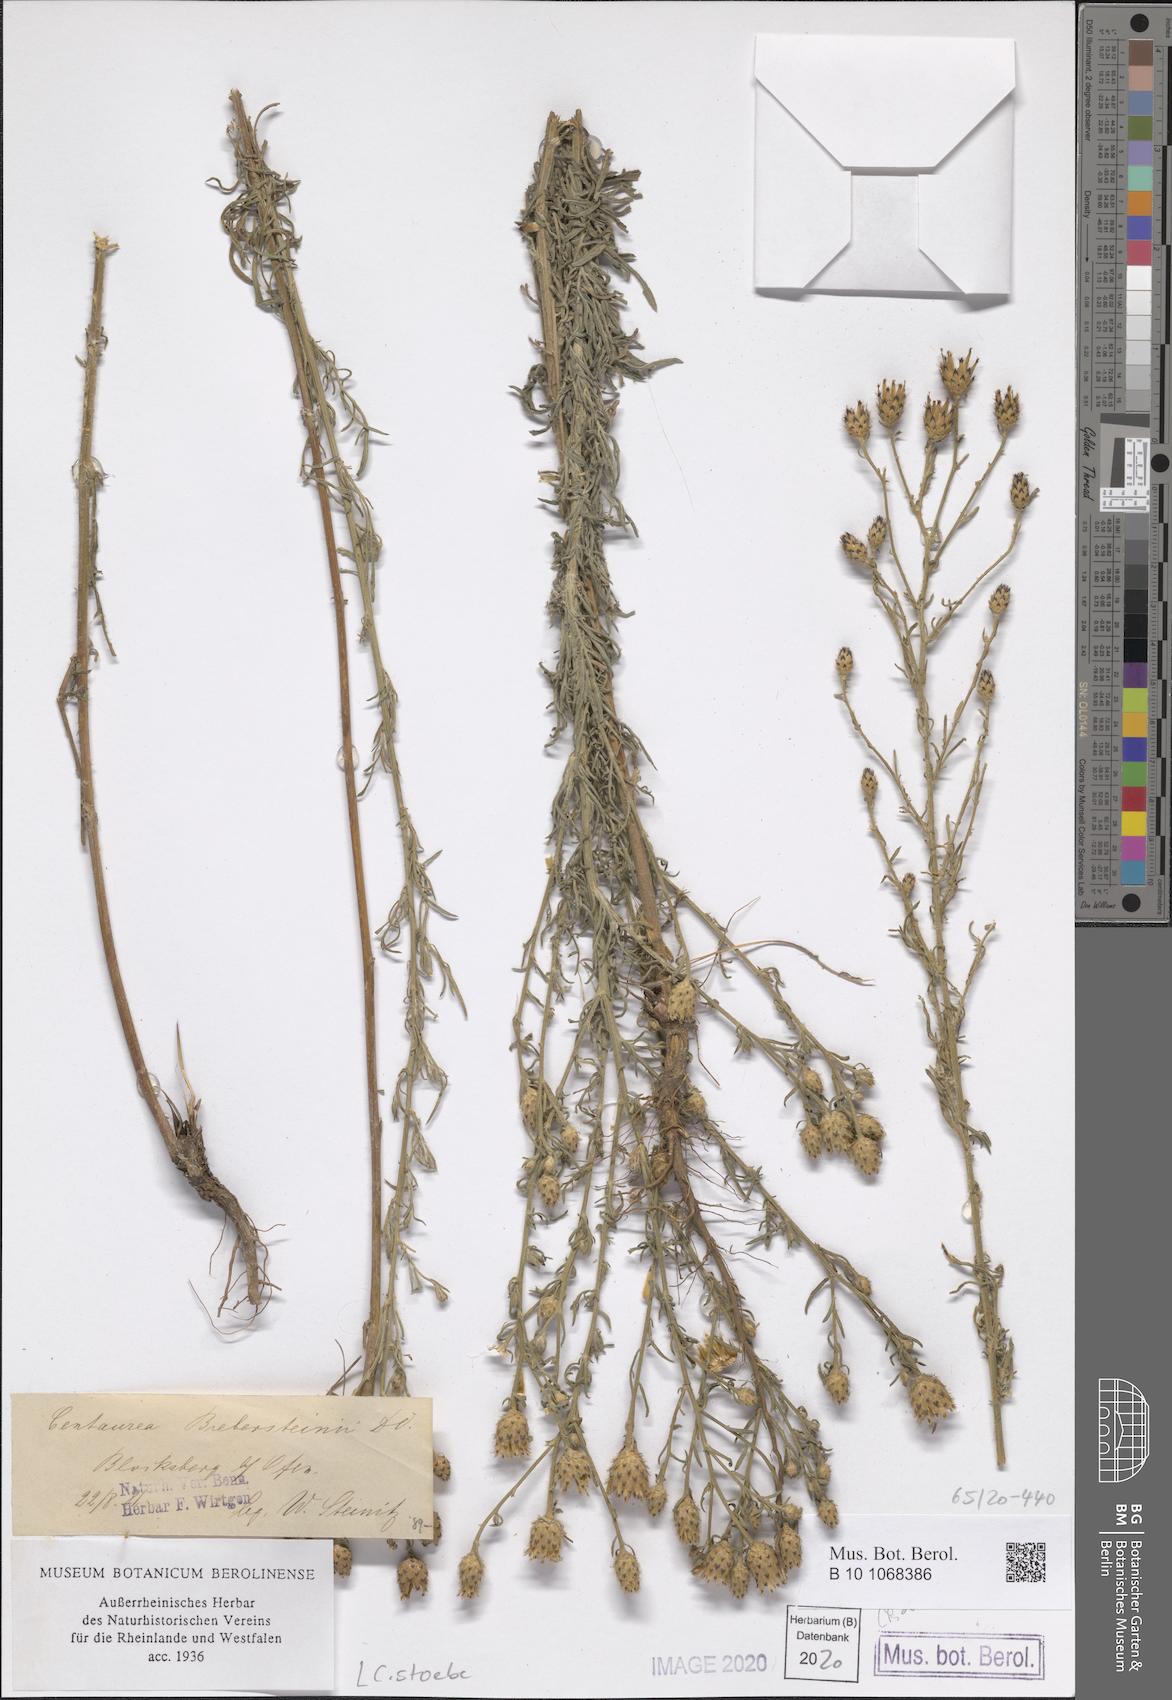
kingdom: Plantae
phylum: Tracheophyta
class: Magnoliopsida
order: Asterales
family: Asteraceae
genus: Centaurea
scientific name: Centaurea stoebe
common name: Spotted knapweed
